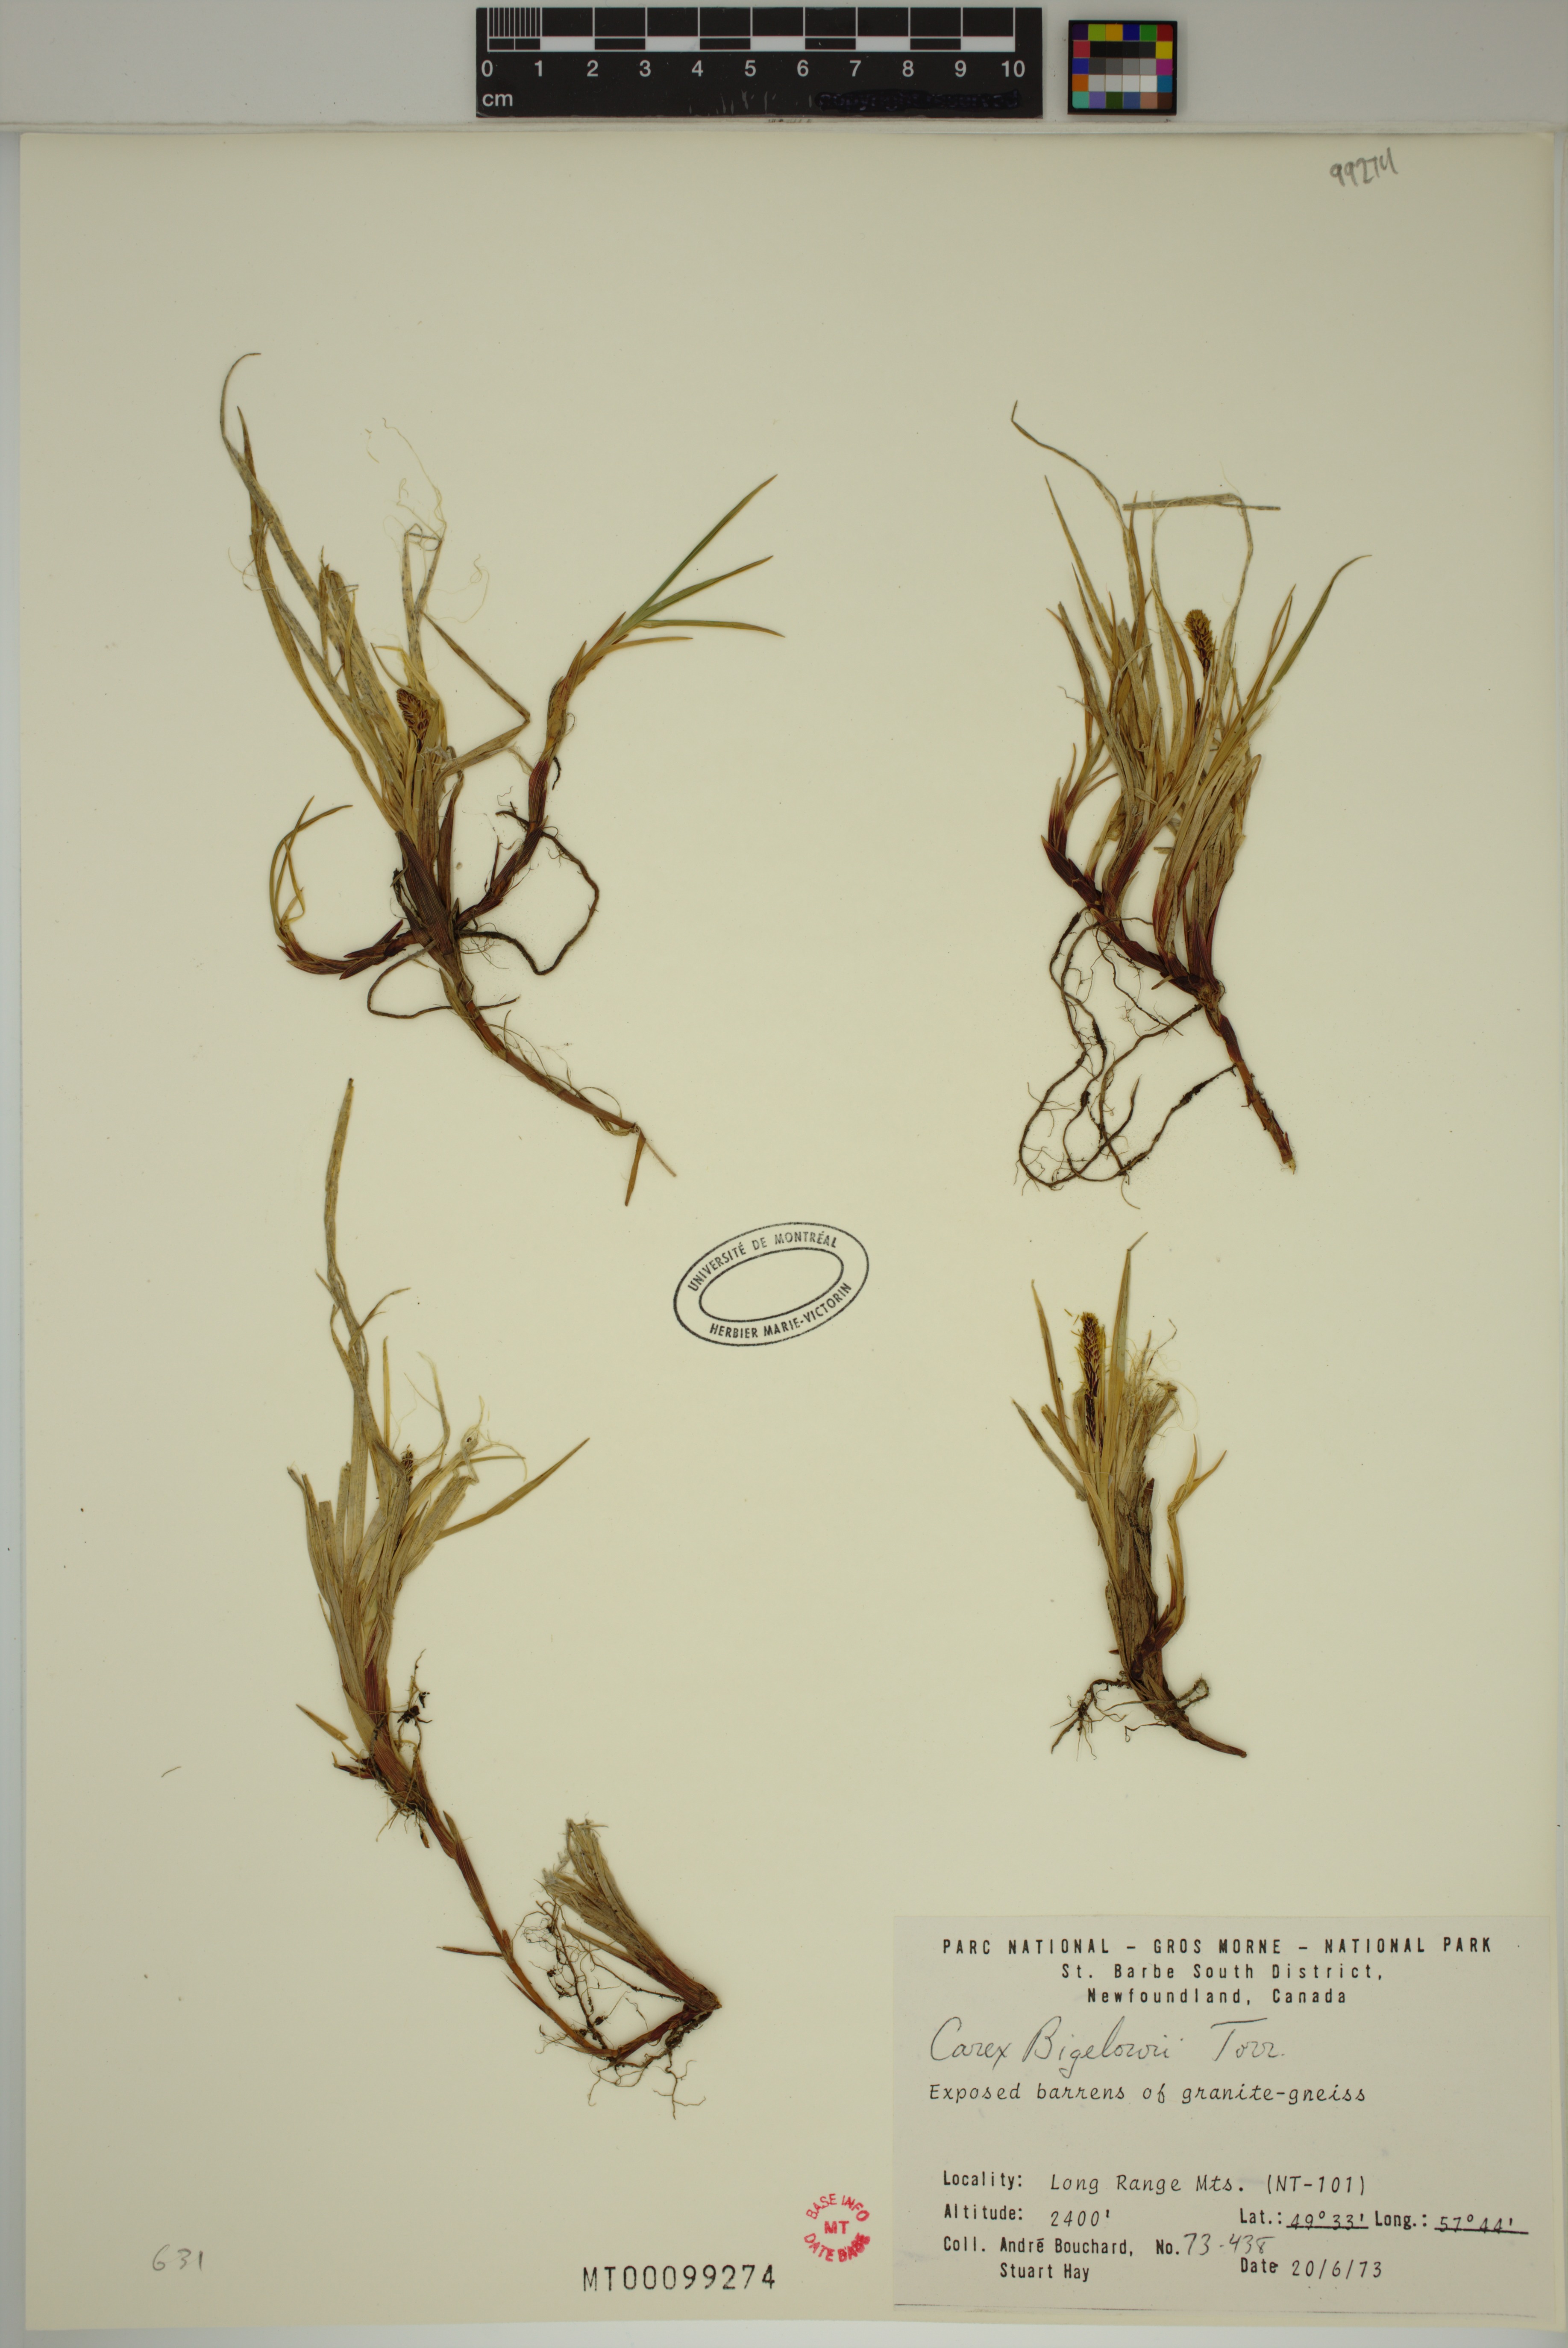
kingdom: Plantae
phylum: Tracheophyta
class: Liliopsida
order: Poales
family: Cyperaceae
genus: Carex
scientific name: Carex bigelowii
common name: Stiff sedge
